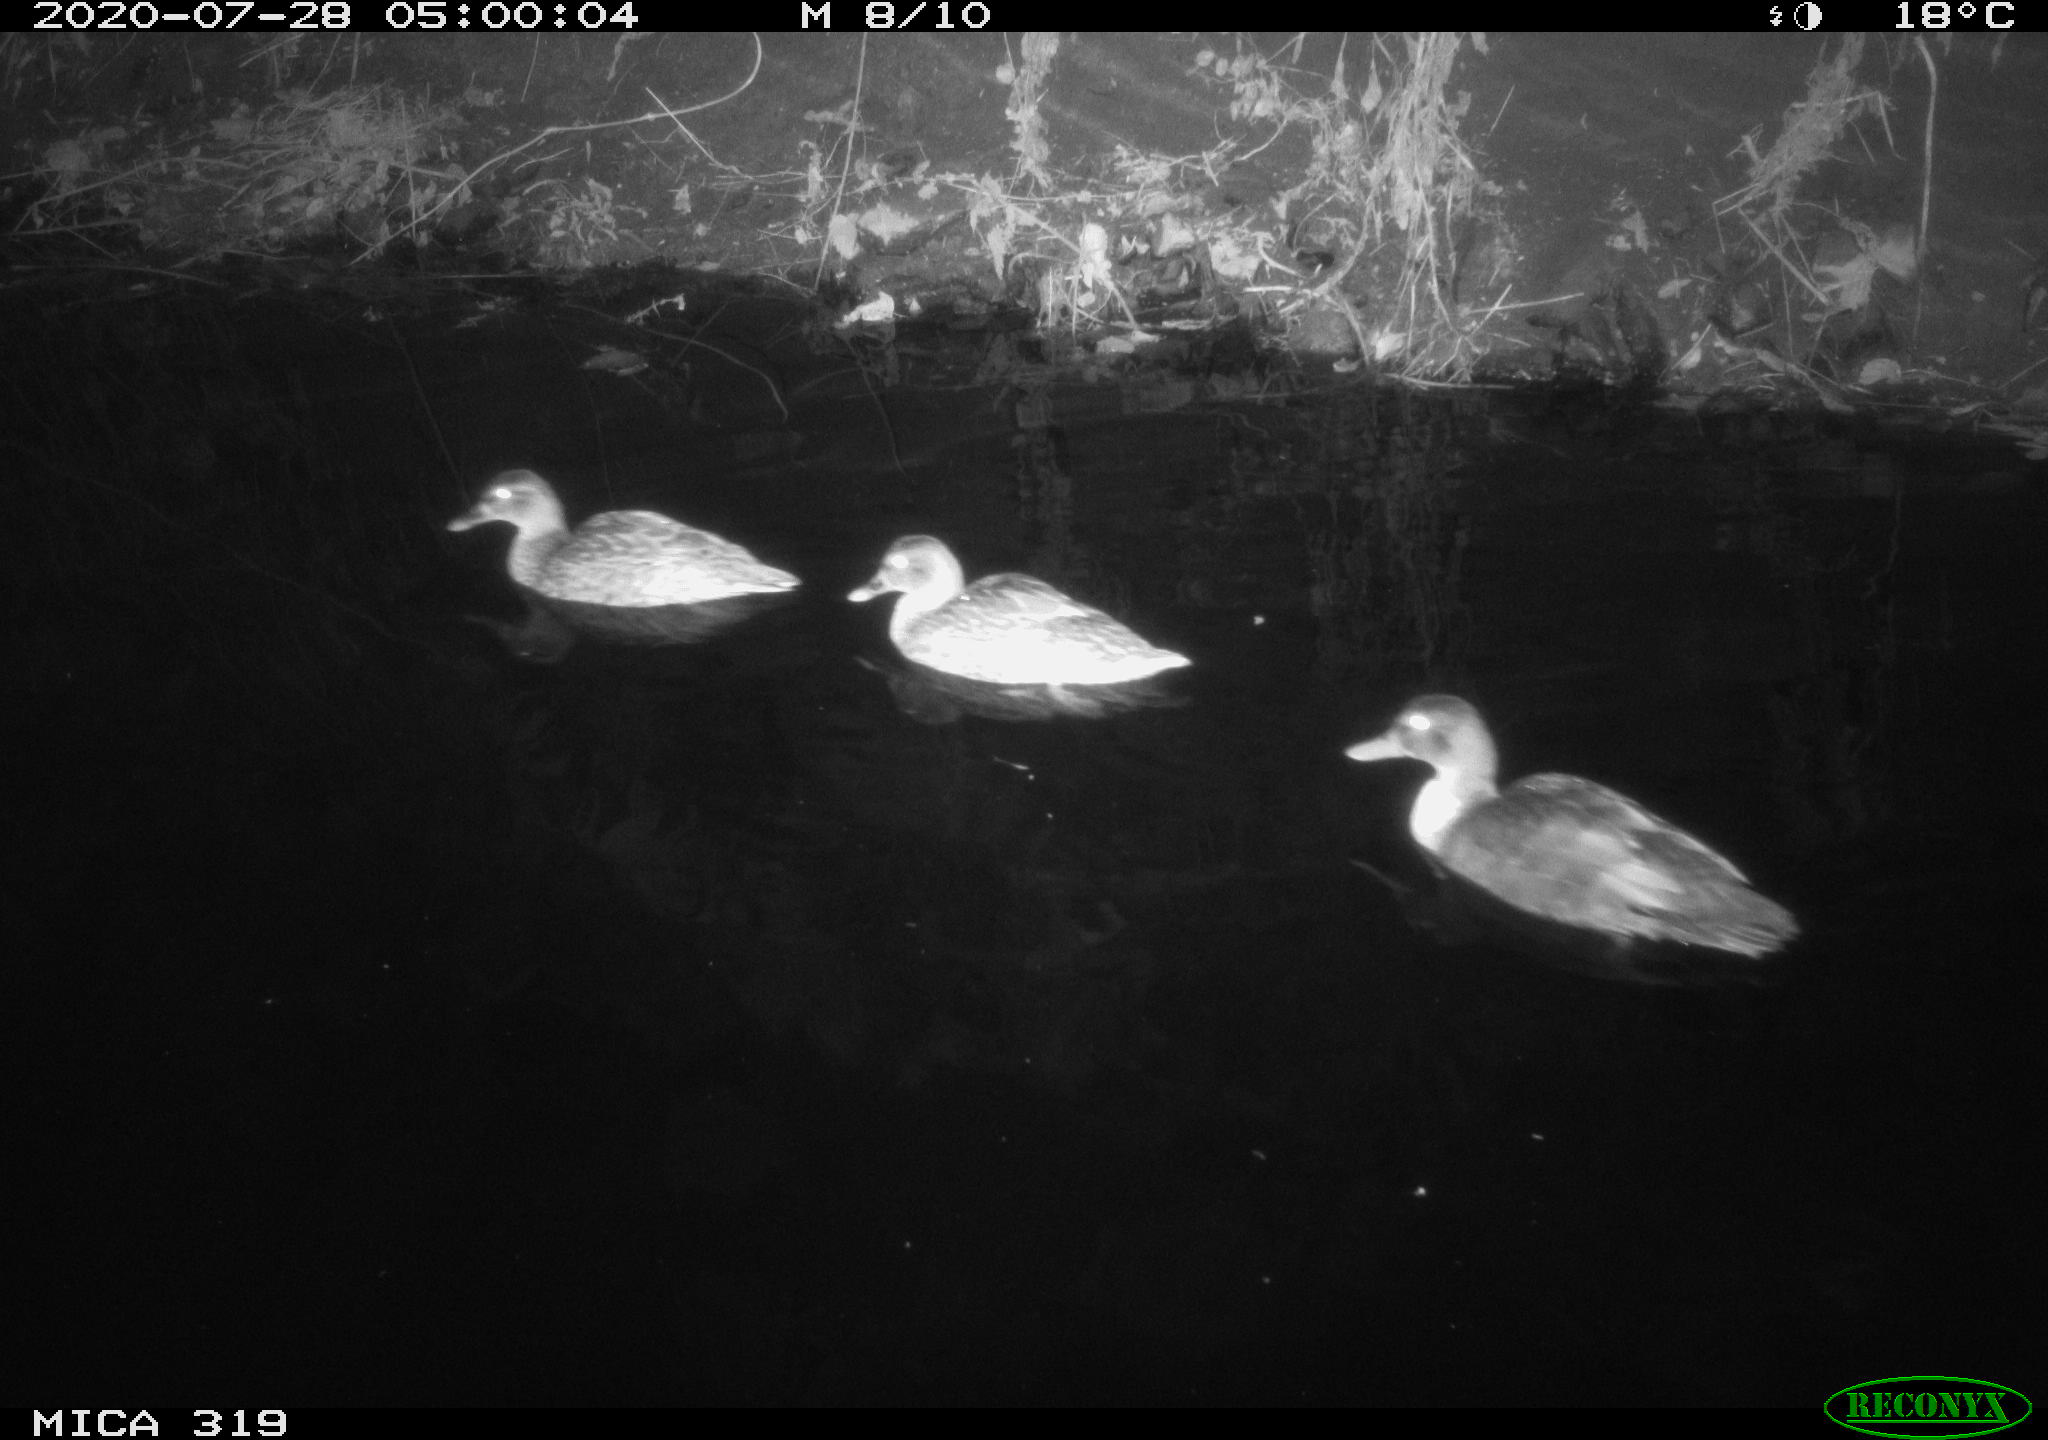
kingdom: Animalia
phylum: Chordata
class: Aves
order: Anseriformes
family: Anatidae
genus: Anas
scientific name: Anas platyrhynchos
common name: Mallard
